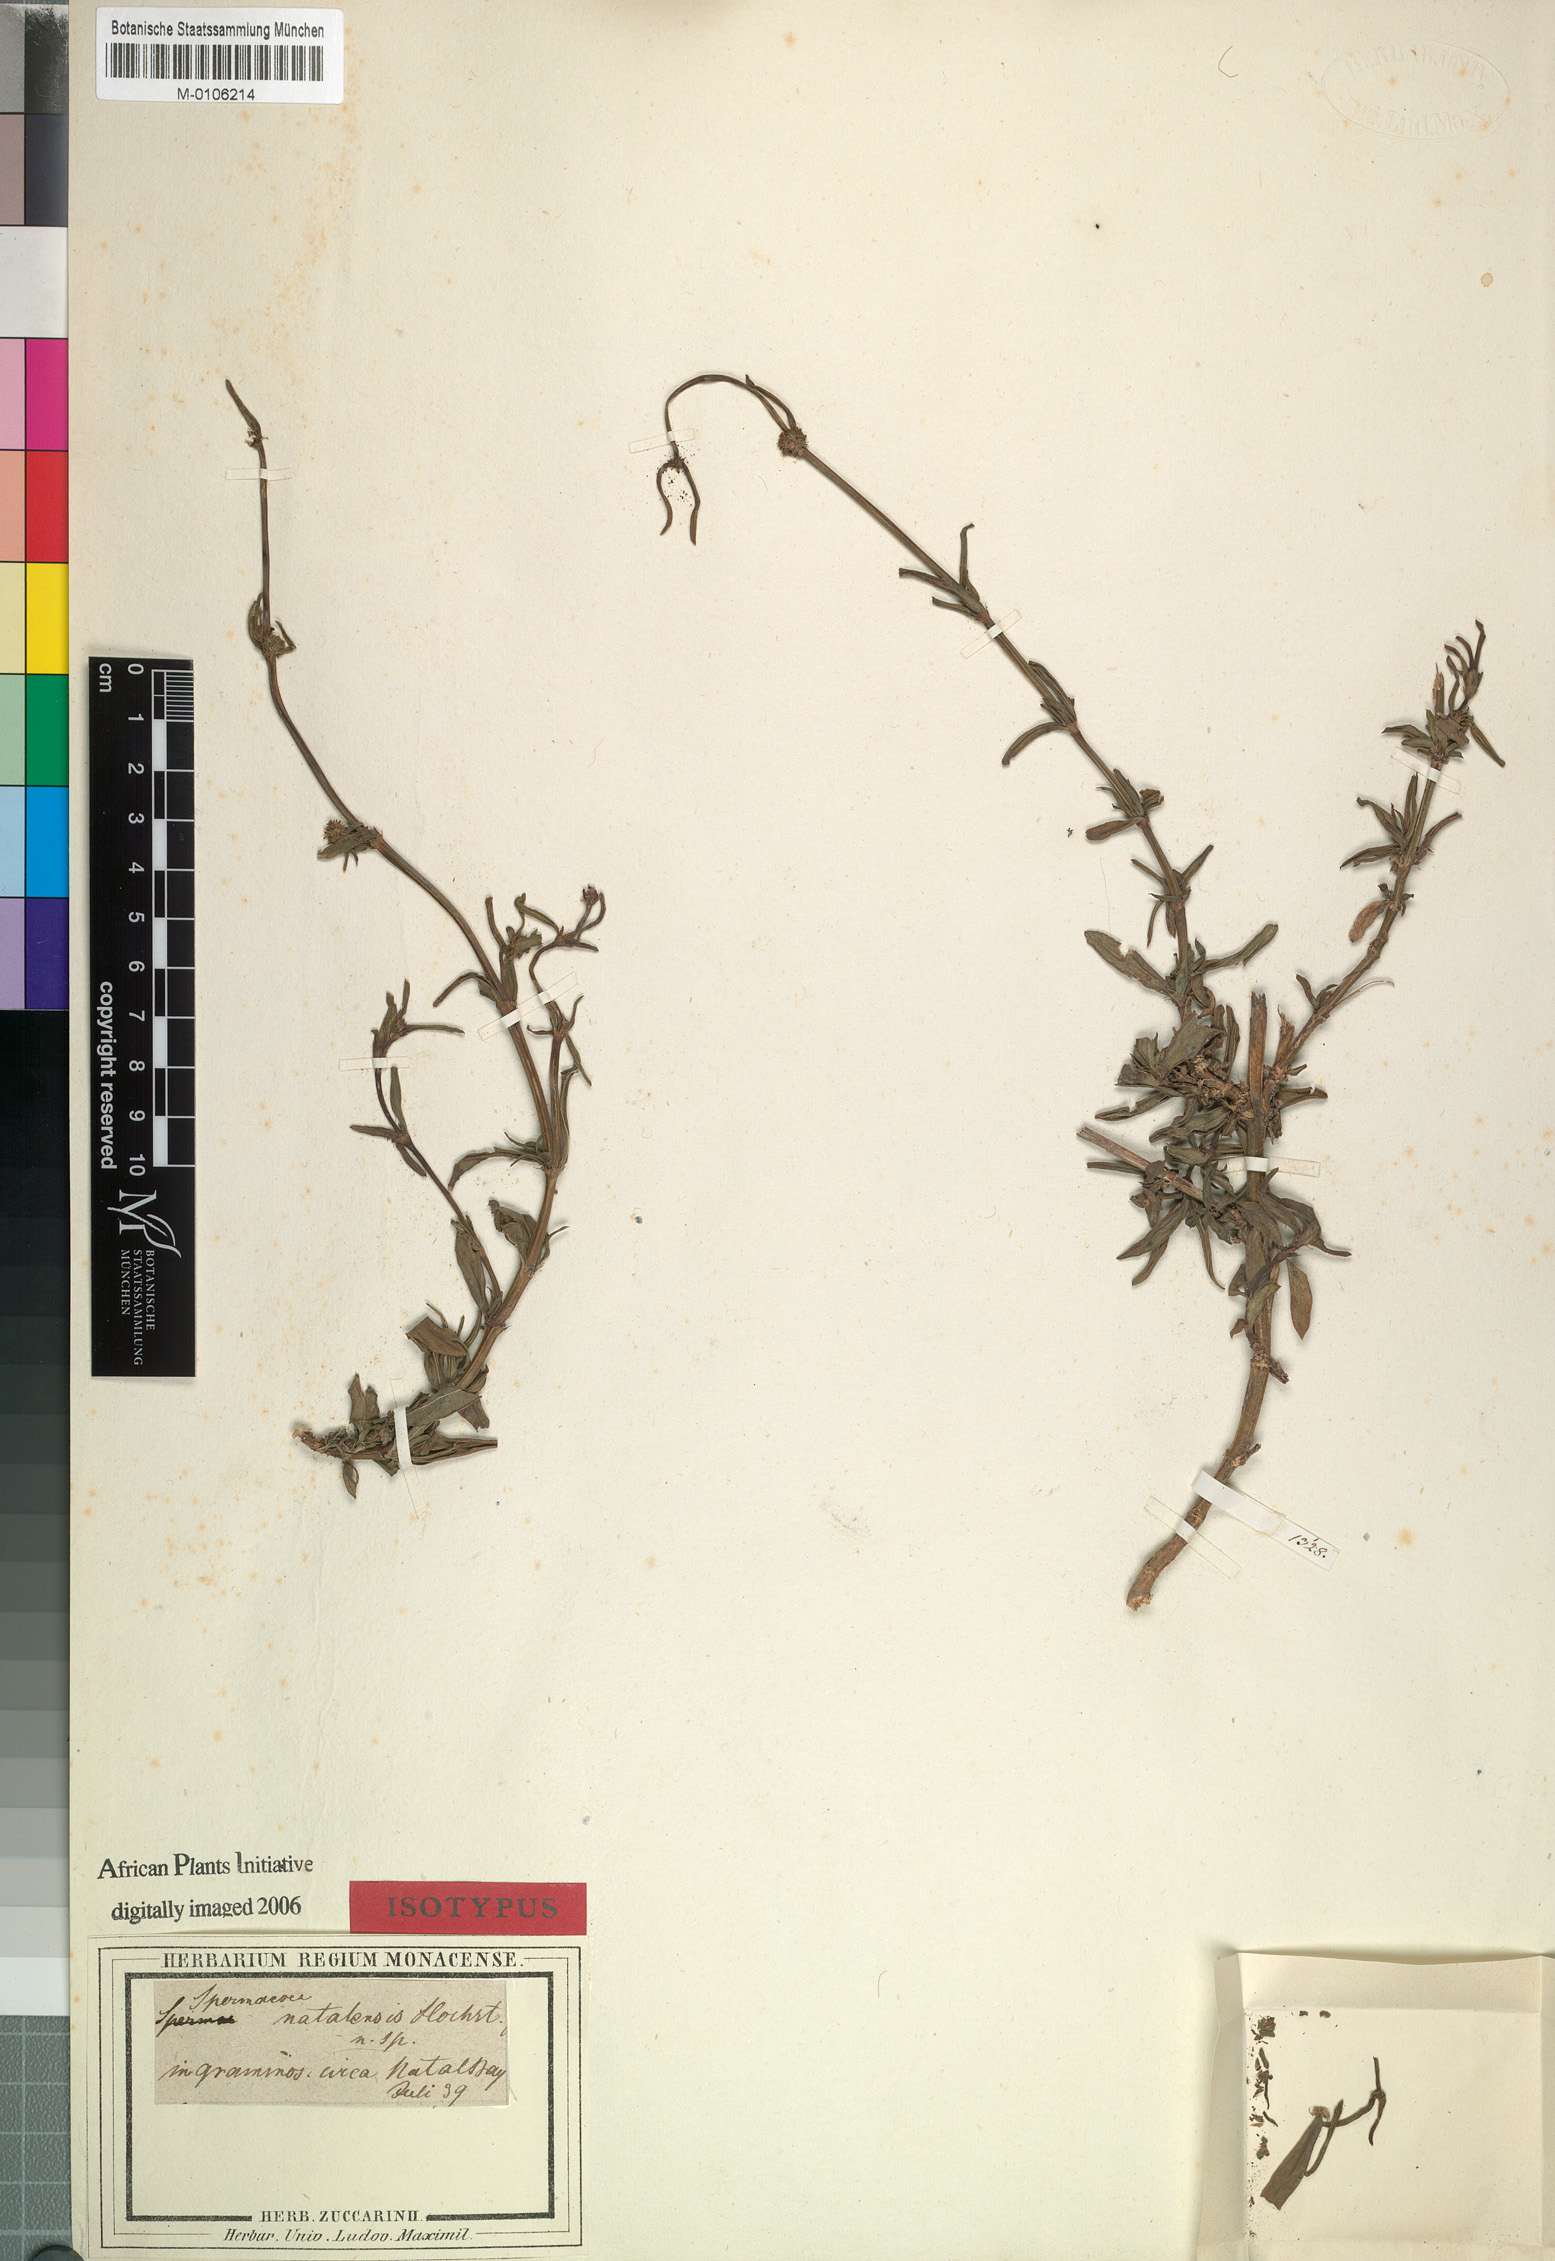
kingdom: Plantae
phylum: Tracheophyta
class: Magnoliopsida
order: Gentianales
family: Rubiaceae
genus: Spermacoce
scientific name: Spermacoce natalensis
